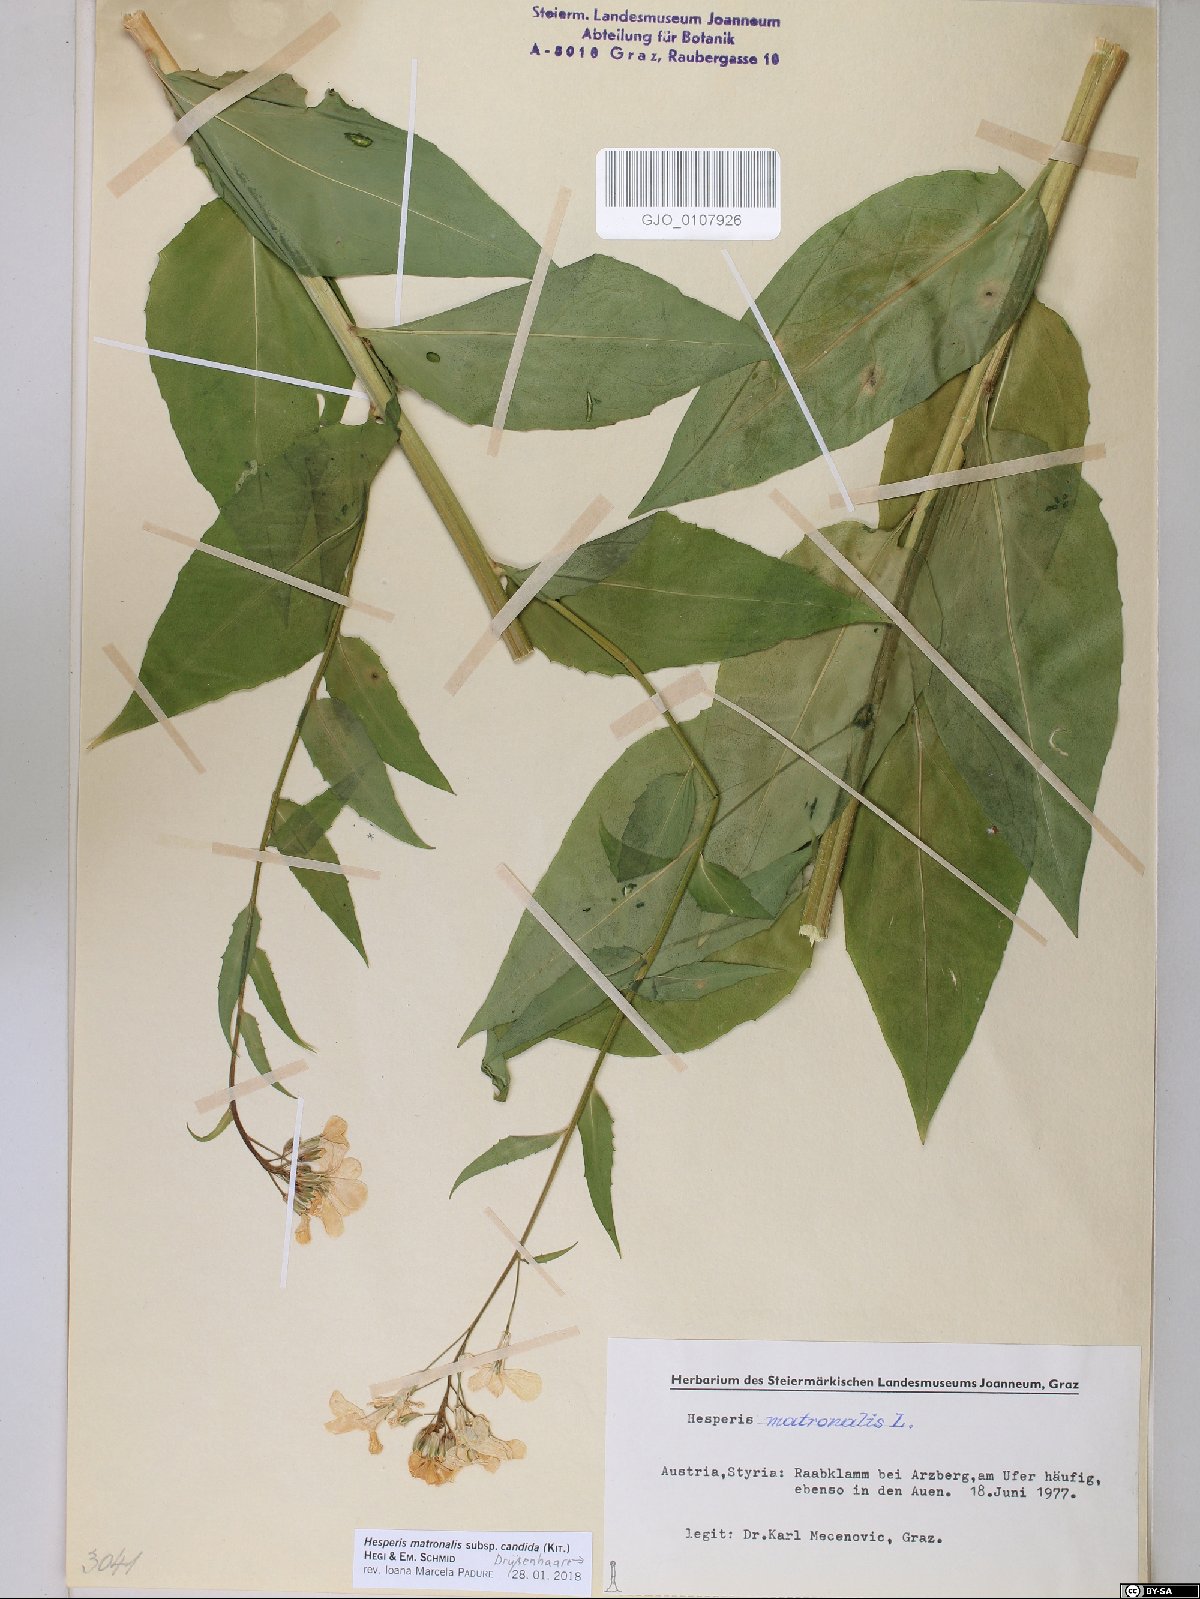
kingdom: Plantae
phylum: Tracheophyta
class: Magnoliopsida
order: Brassicales
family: Brassicaceae
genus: Hesperis
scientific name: Hesperis matronalis
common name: Dame's-violet
